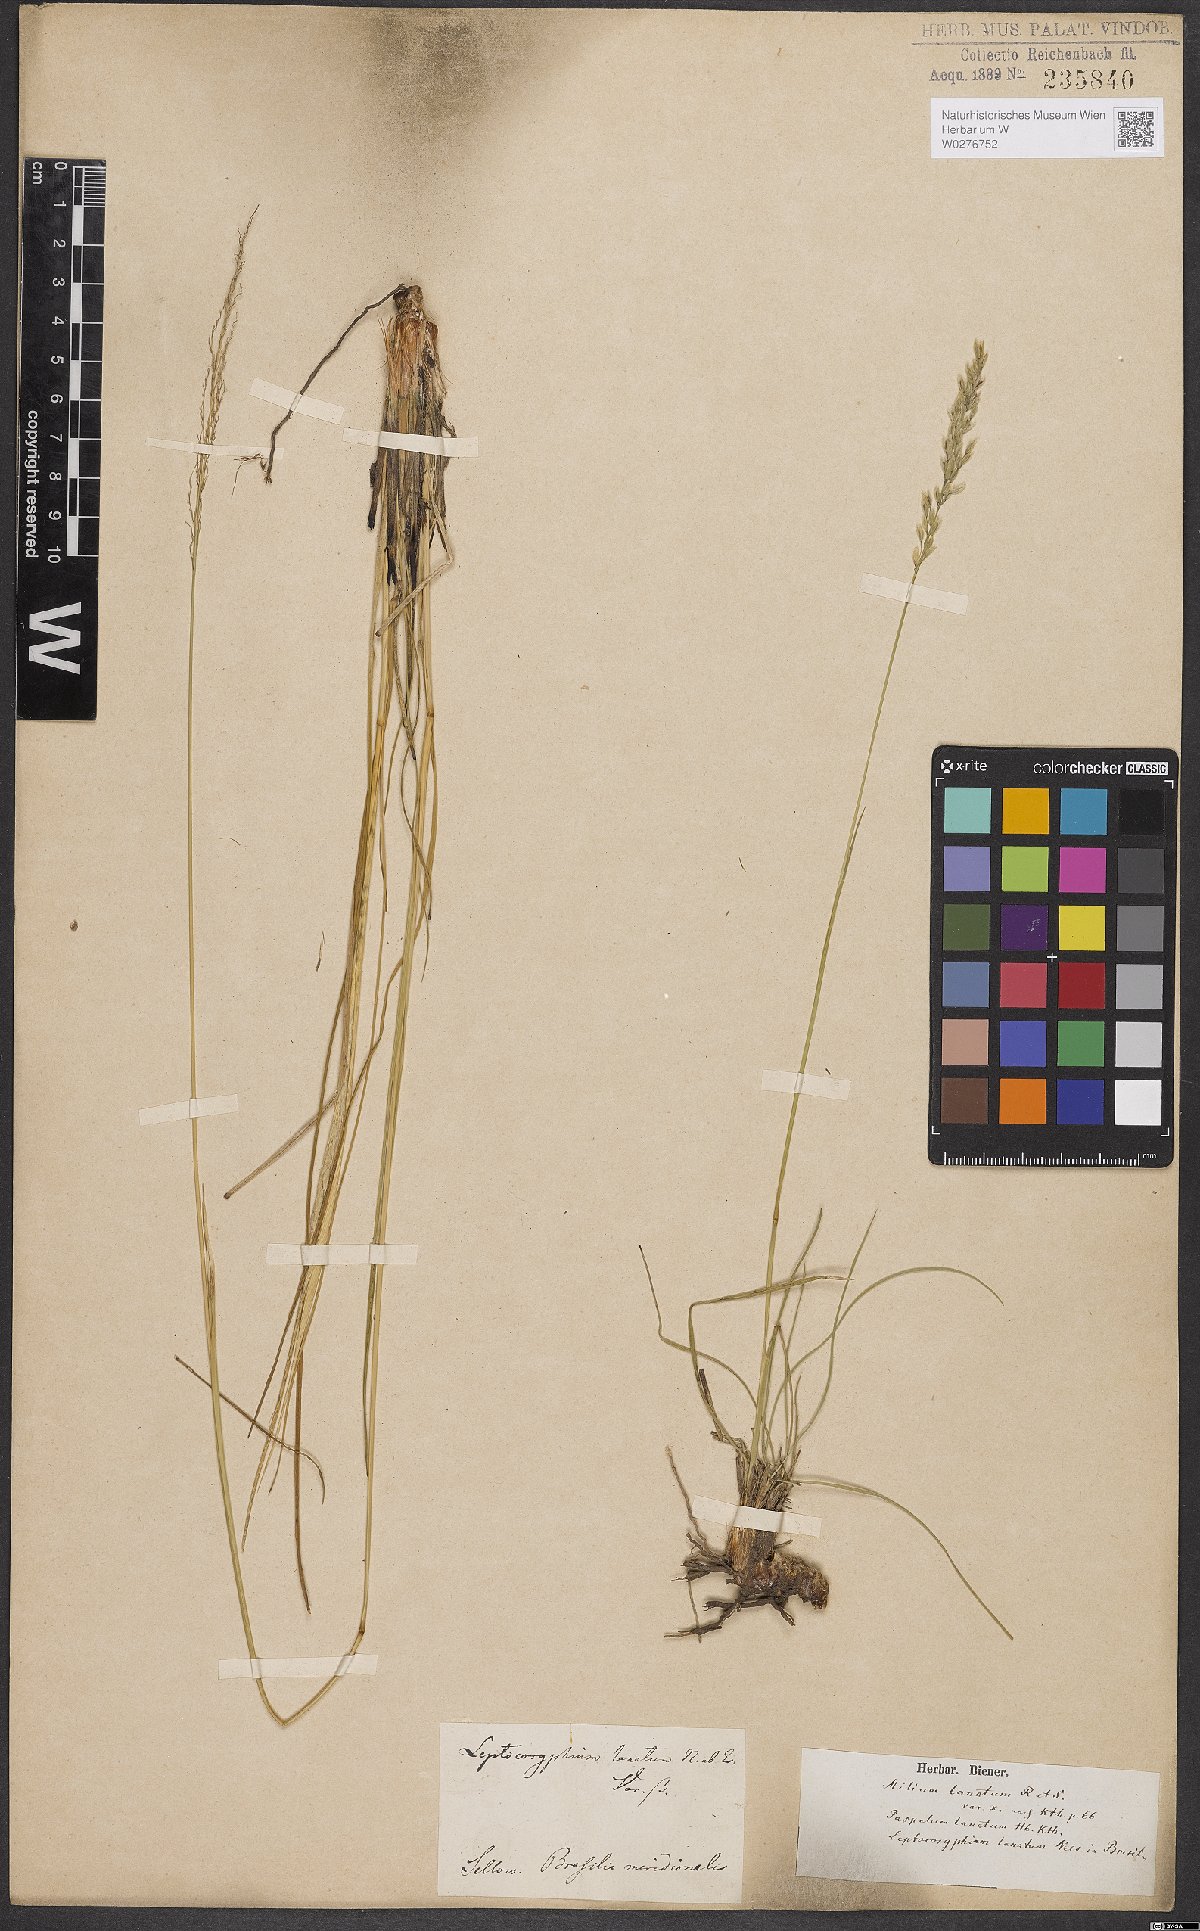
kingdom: Plantae
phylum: Tracheophyta
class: Liliopsida
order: Poales
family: Poaceae
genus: Anthaenantia
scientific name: Anthaenantia lanata
